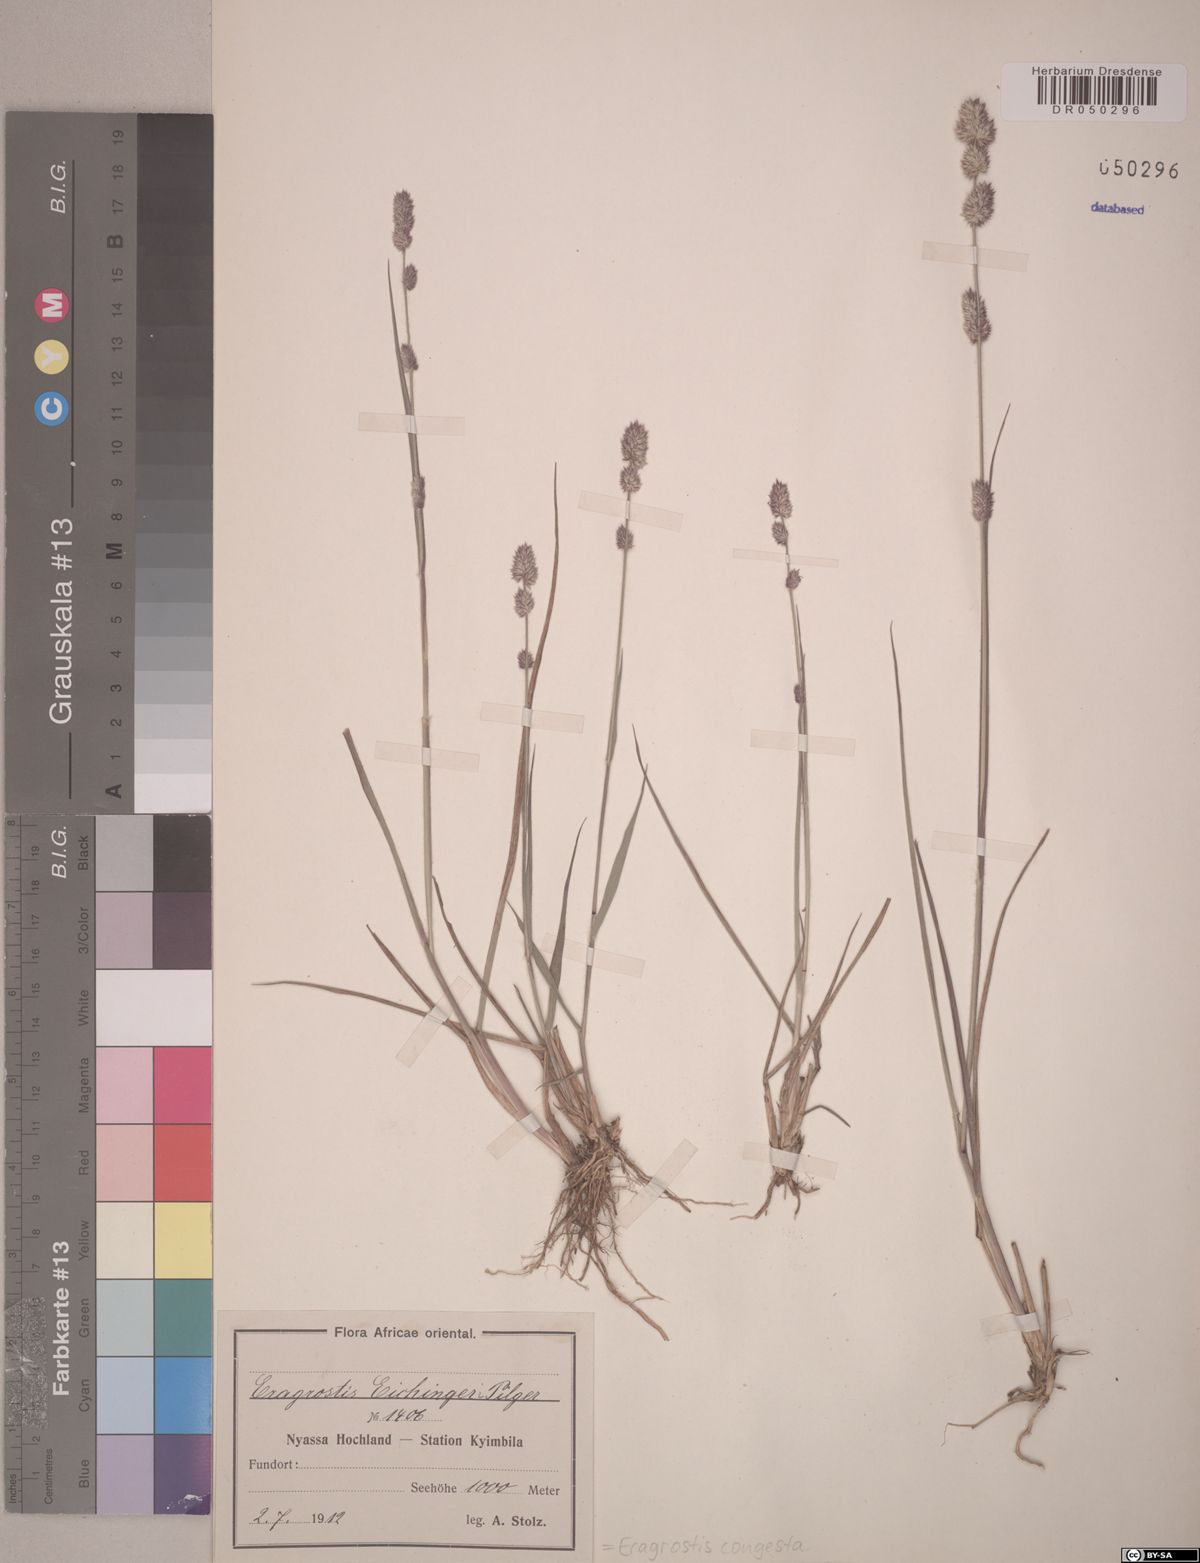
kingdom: Plantae
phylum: Tracheophyta
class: Liliopsida
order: Poales
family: Poaceae
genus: Eragrostis
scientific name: Eragrostis congesta
